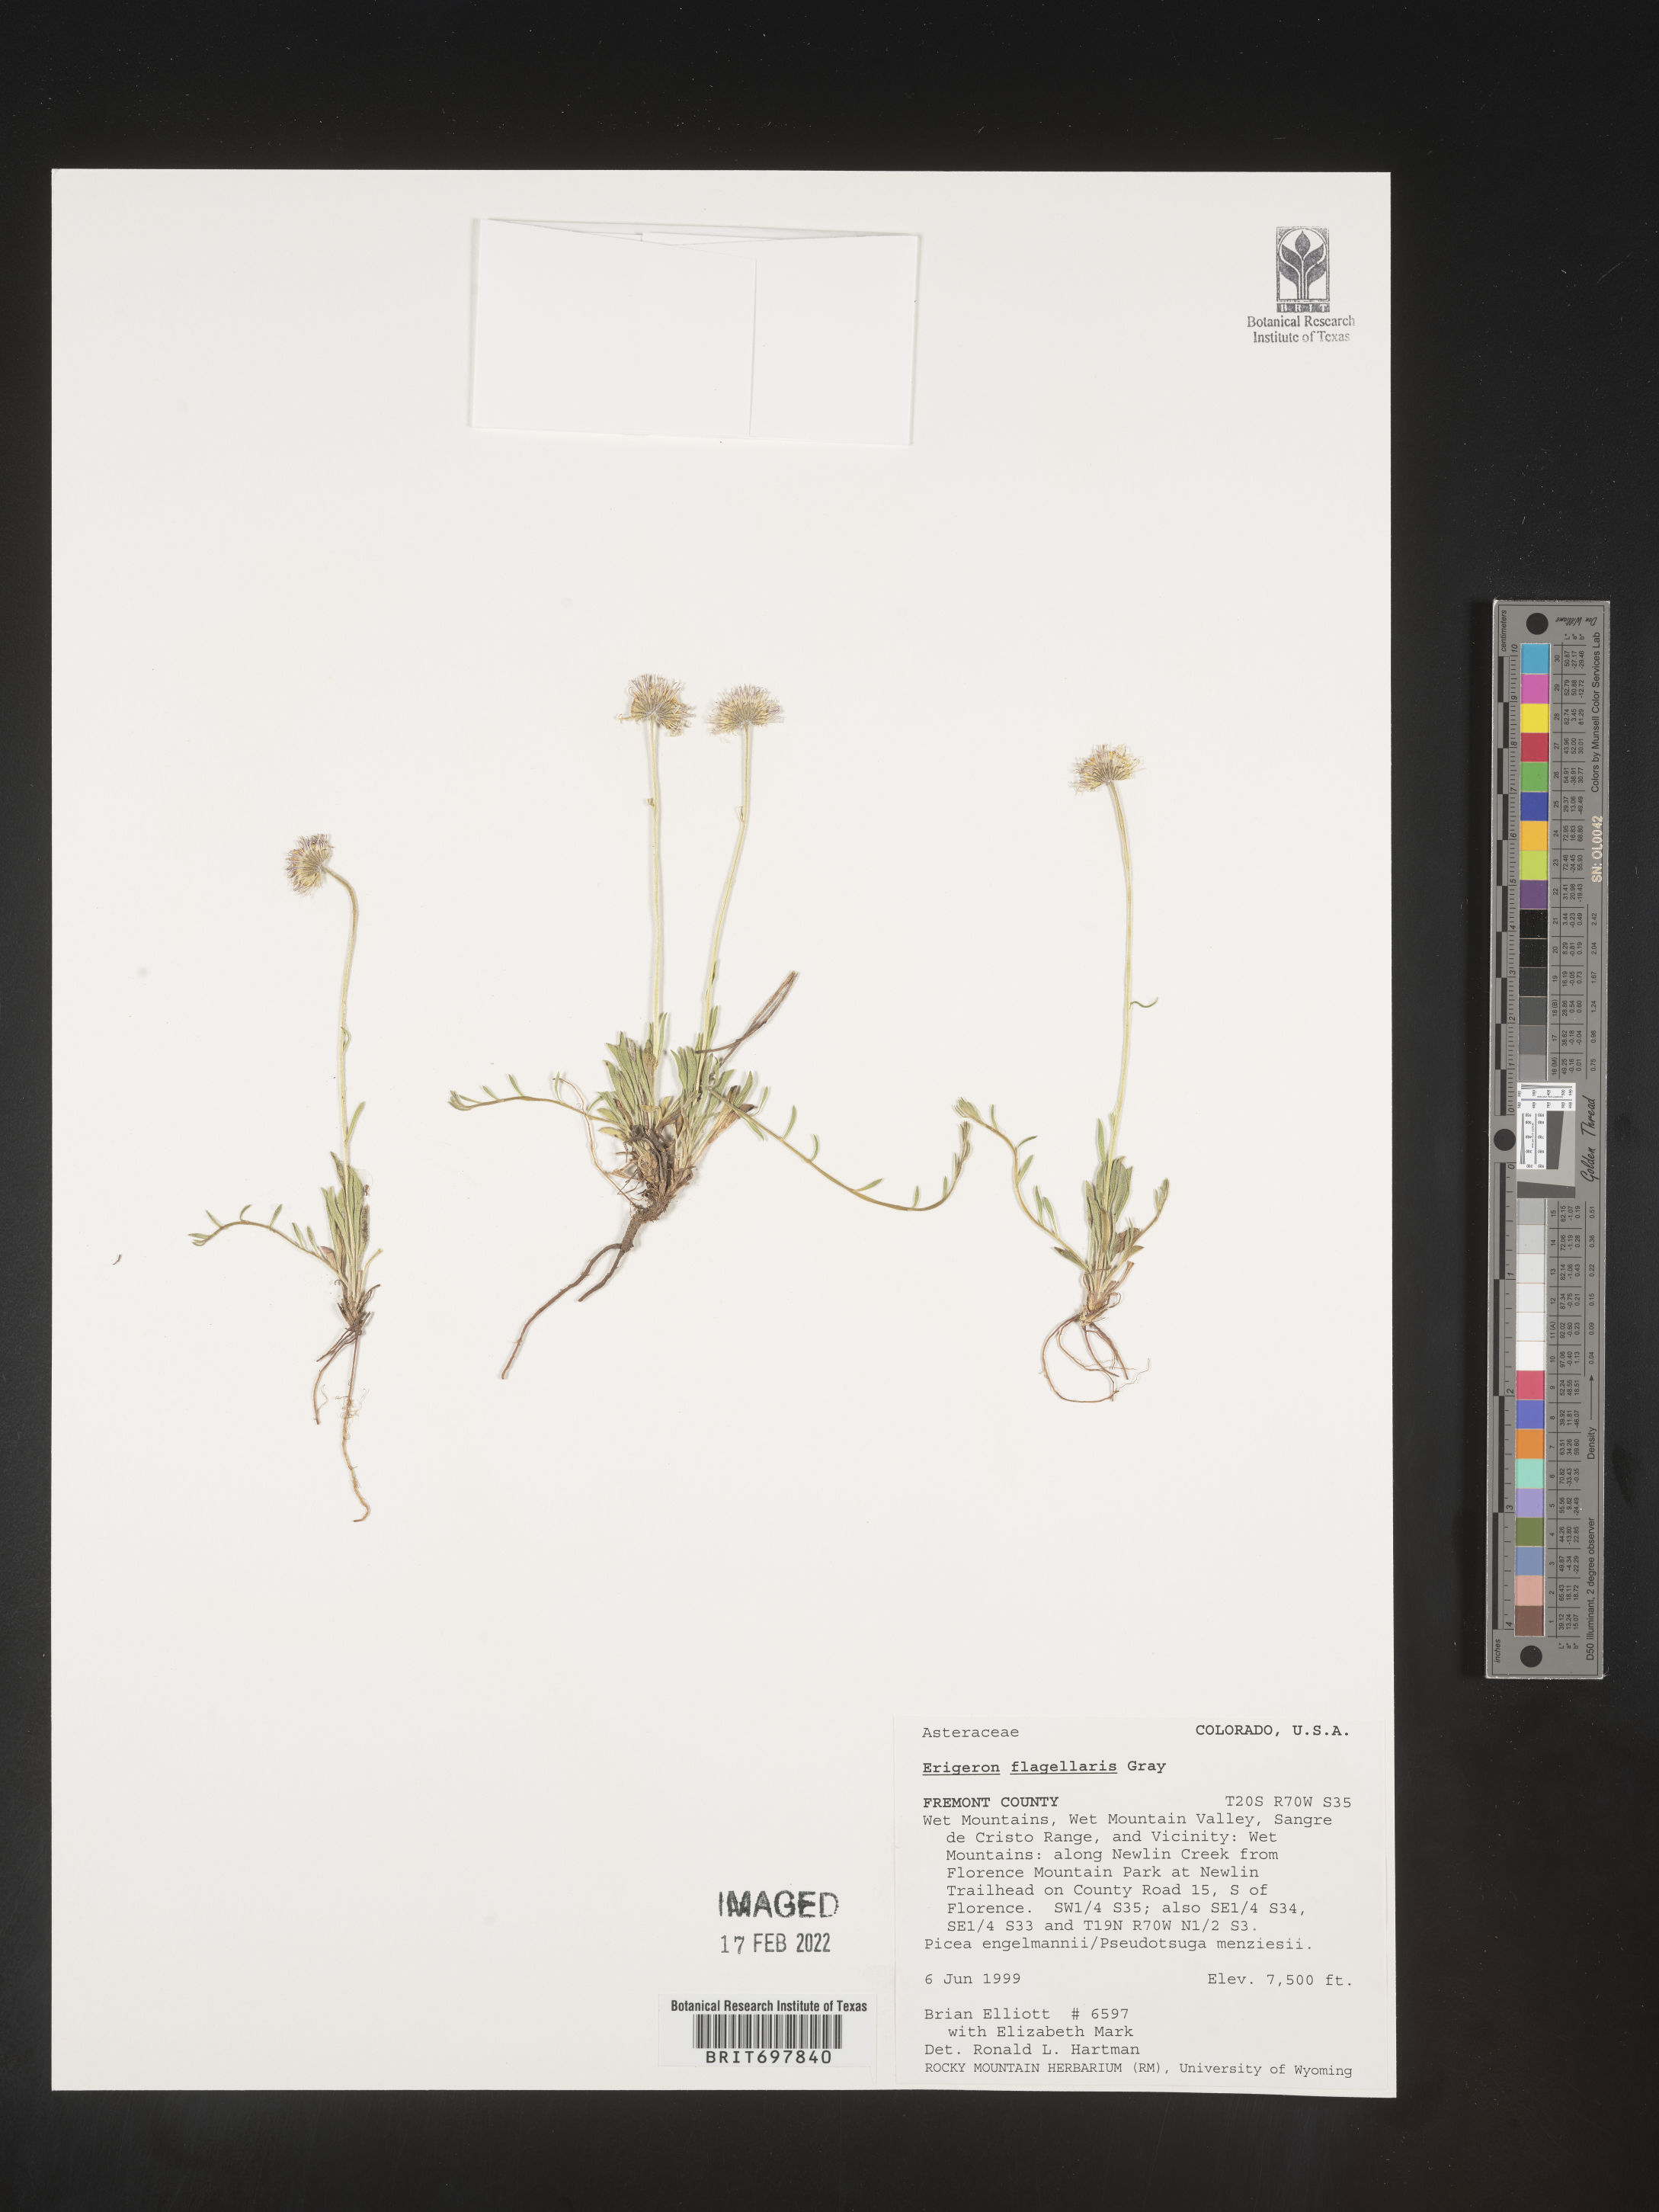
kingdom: Plantae
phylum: Tracheophyta
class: Magnoliopsida
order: Asterales
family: Asteraceae
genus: Erigeron
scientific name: Erigeron flagellaris
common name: Running fleabane
